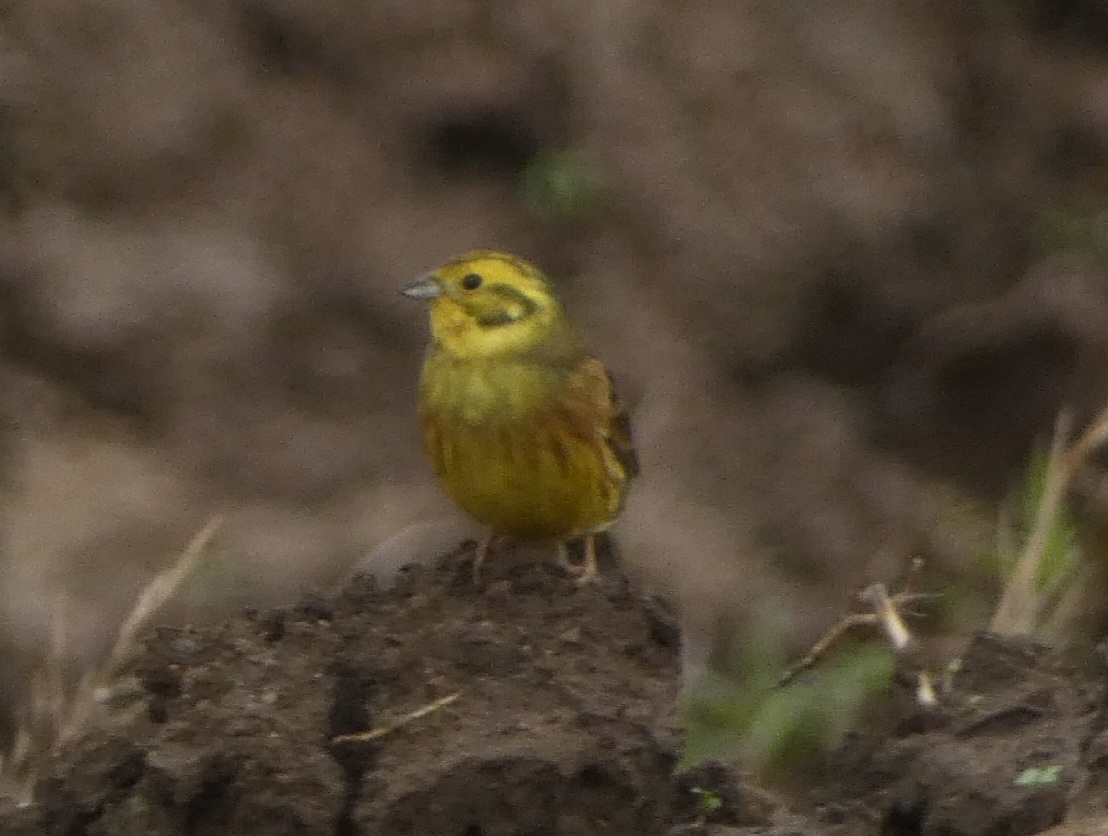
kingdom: Animalia
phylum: Chordata
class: Aves
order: Passeriformes
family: Emberizidae
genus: Emberiza
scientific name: Emberiza citrinella
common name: Gulspurv
